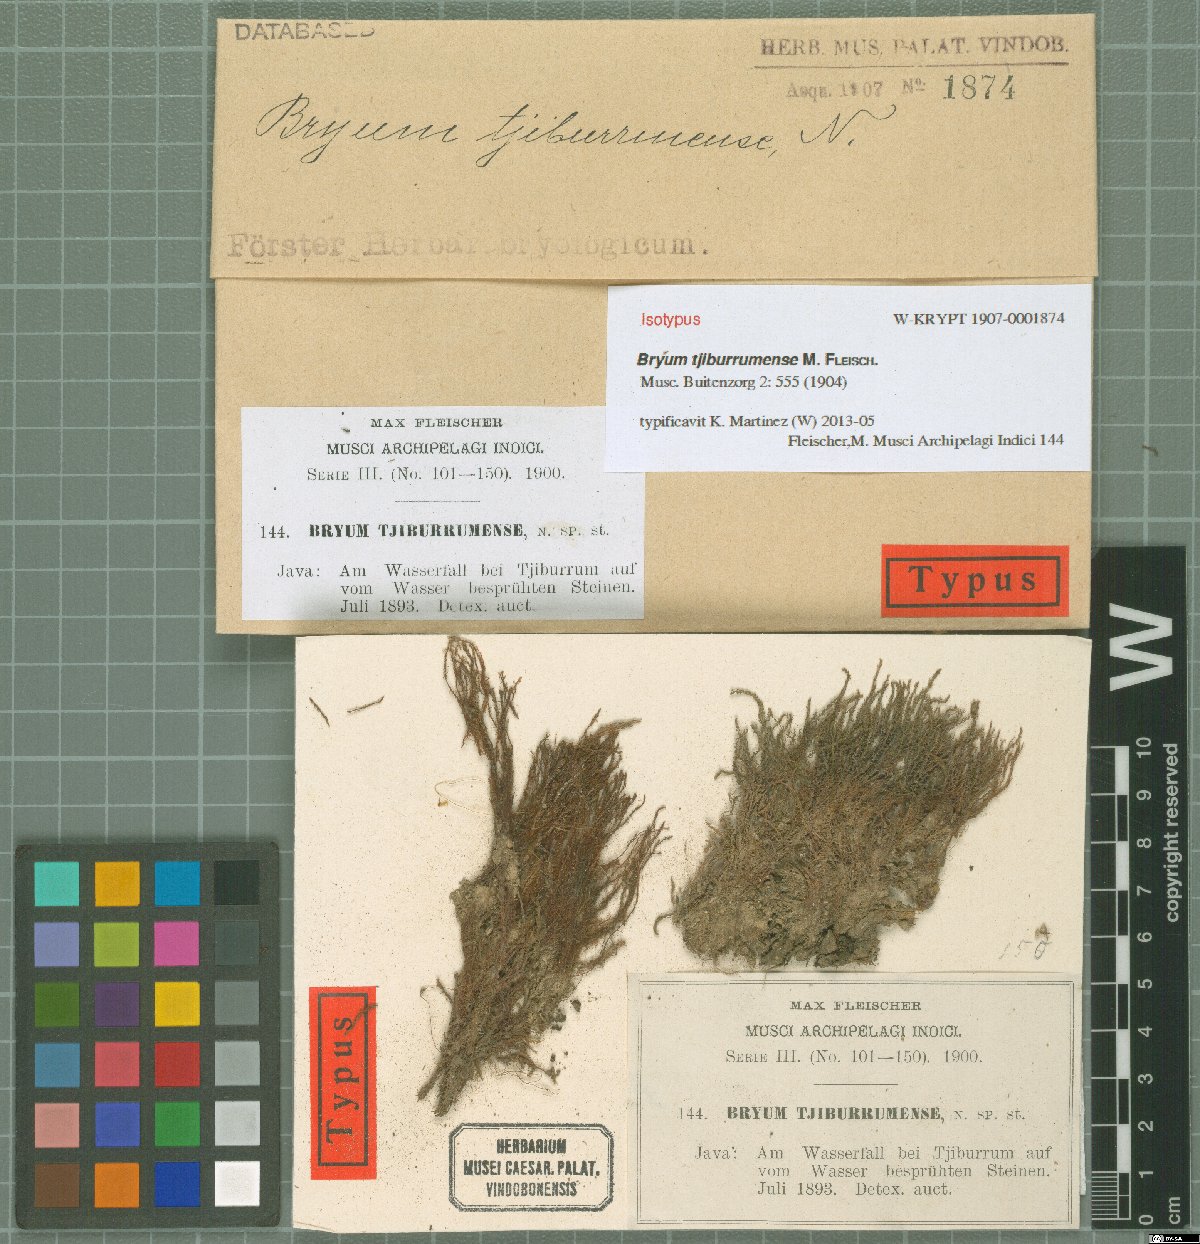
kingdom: Plantae
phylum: Bryophyta
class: Bryopsida
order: Bryales
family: Bryaceae
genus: Bryum
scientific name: Bryum tjiburrumense
